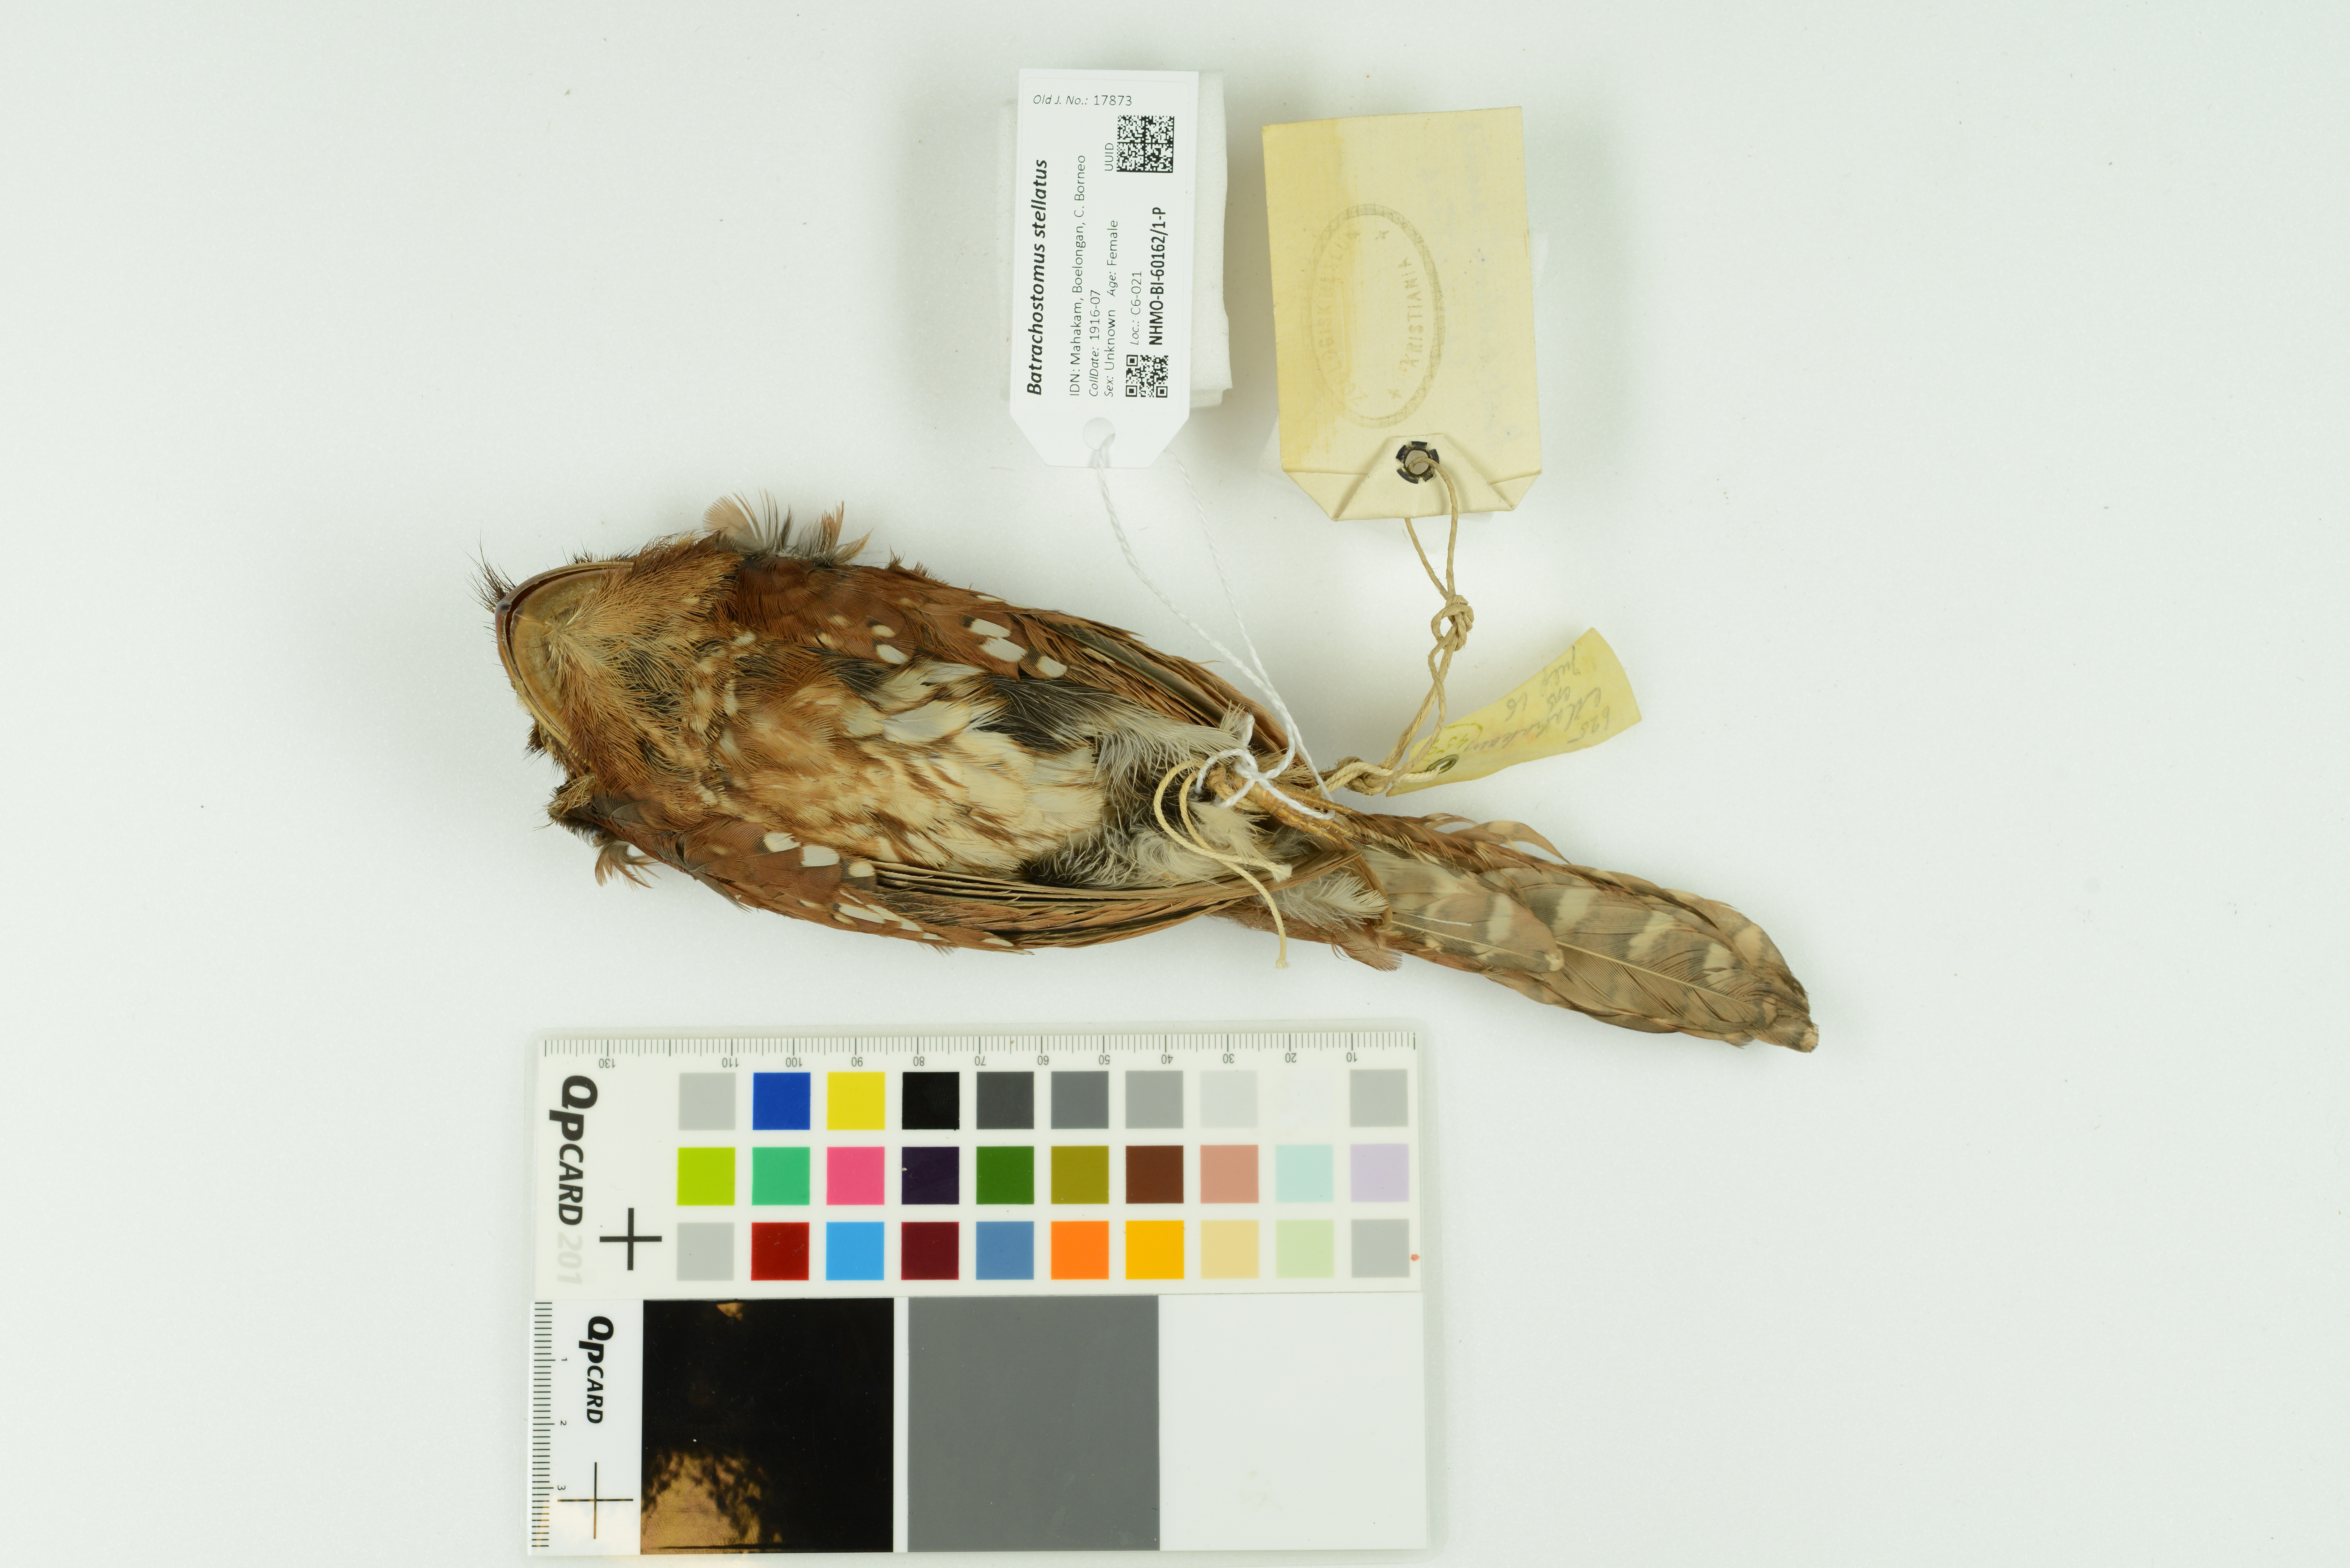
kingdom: Animalia
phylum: Chordata
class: Aves
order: Caprimulgiformes
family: Podargidae
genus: Batrachostomus
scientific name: Batrachostomus stellatus
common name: Gould's frogmouth
